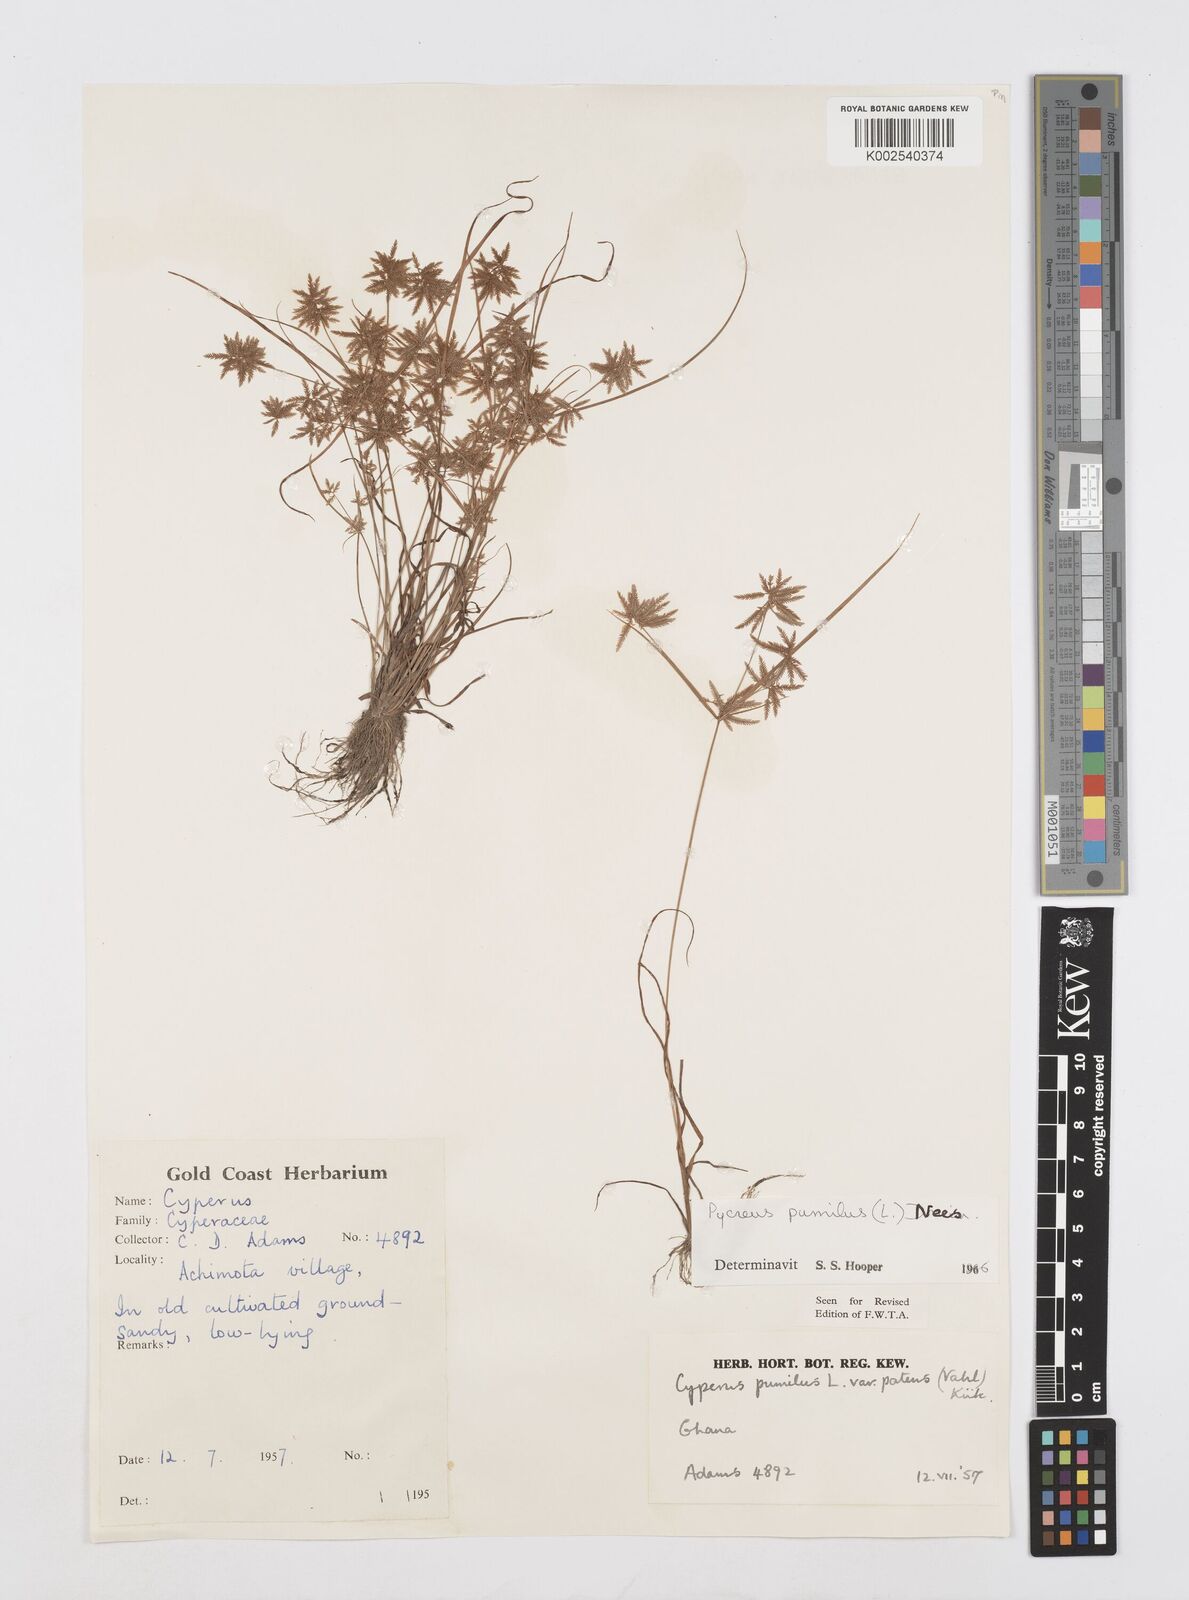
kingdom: Plantae
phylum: Tracheophyta
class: Liliopsida
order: Poales
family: Cyperaceae
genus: Cyperus
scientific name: Cyperus pumilus
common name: Low flatsedge
